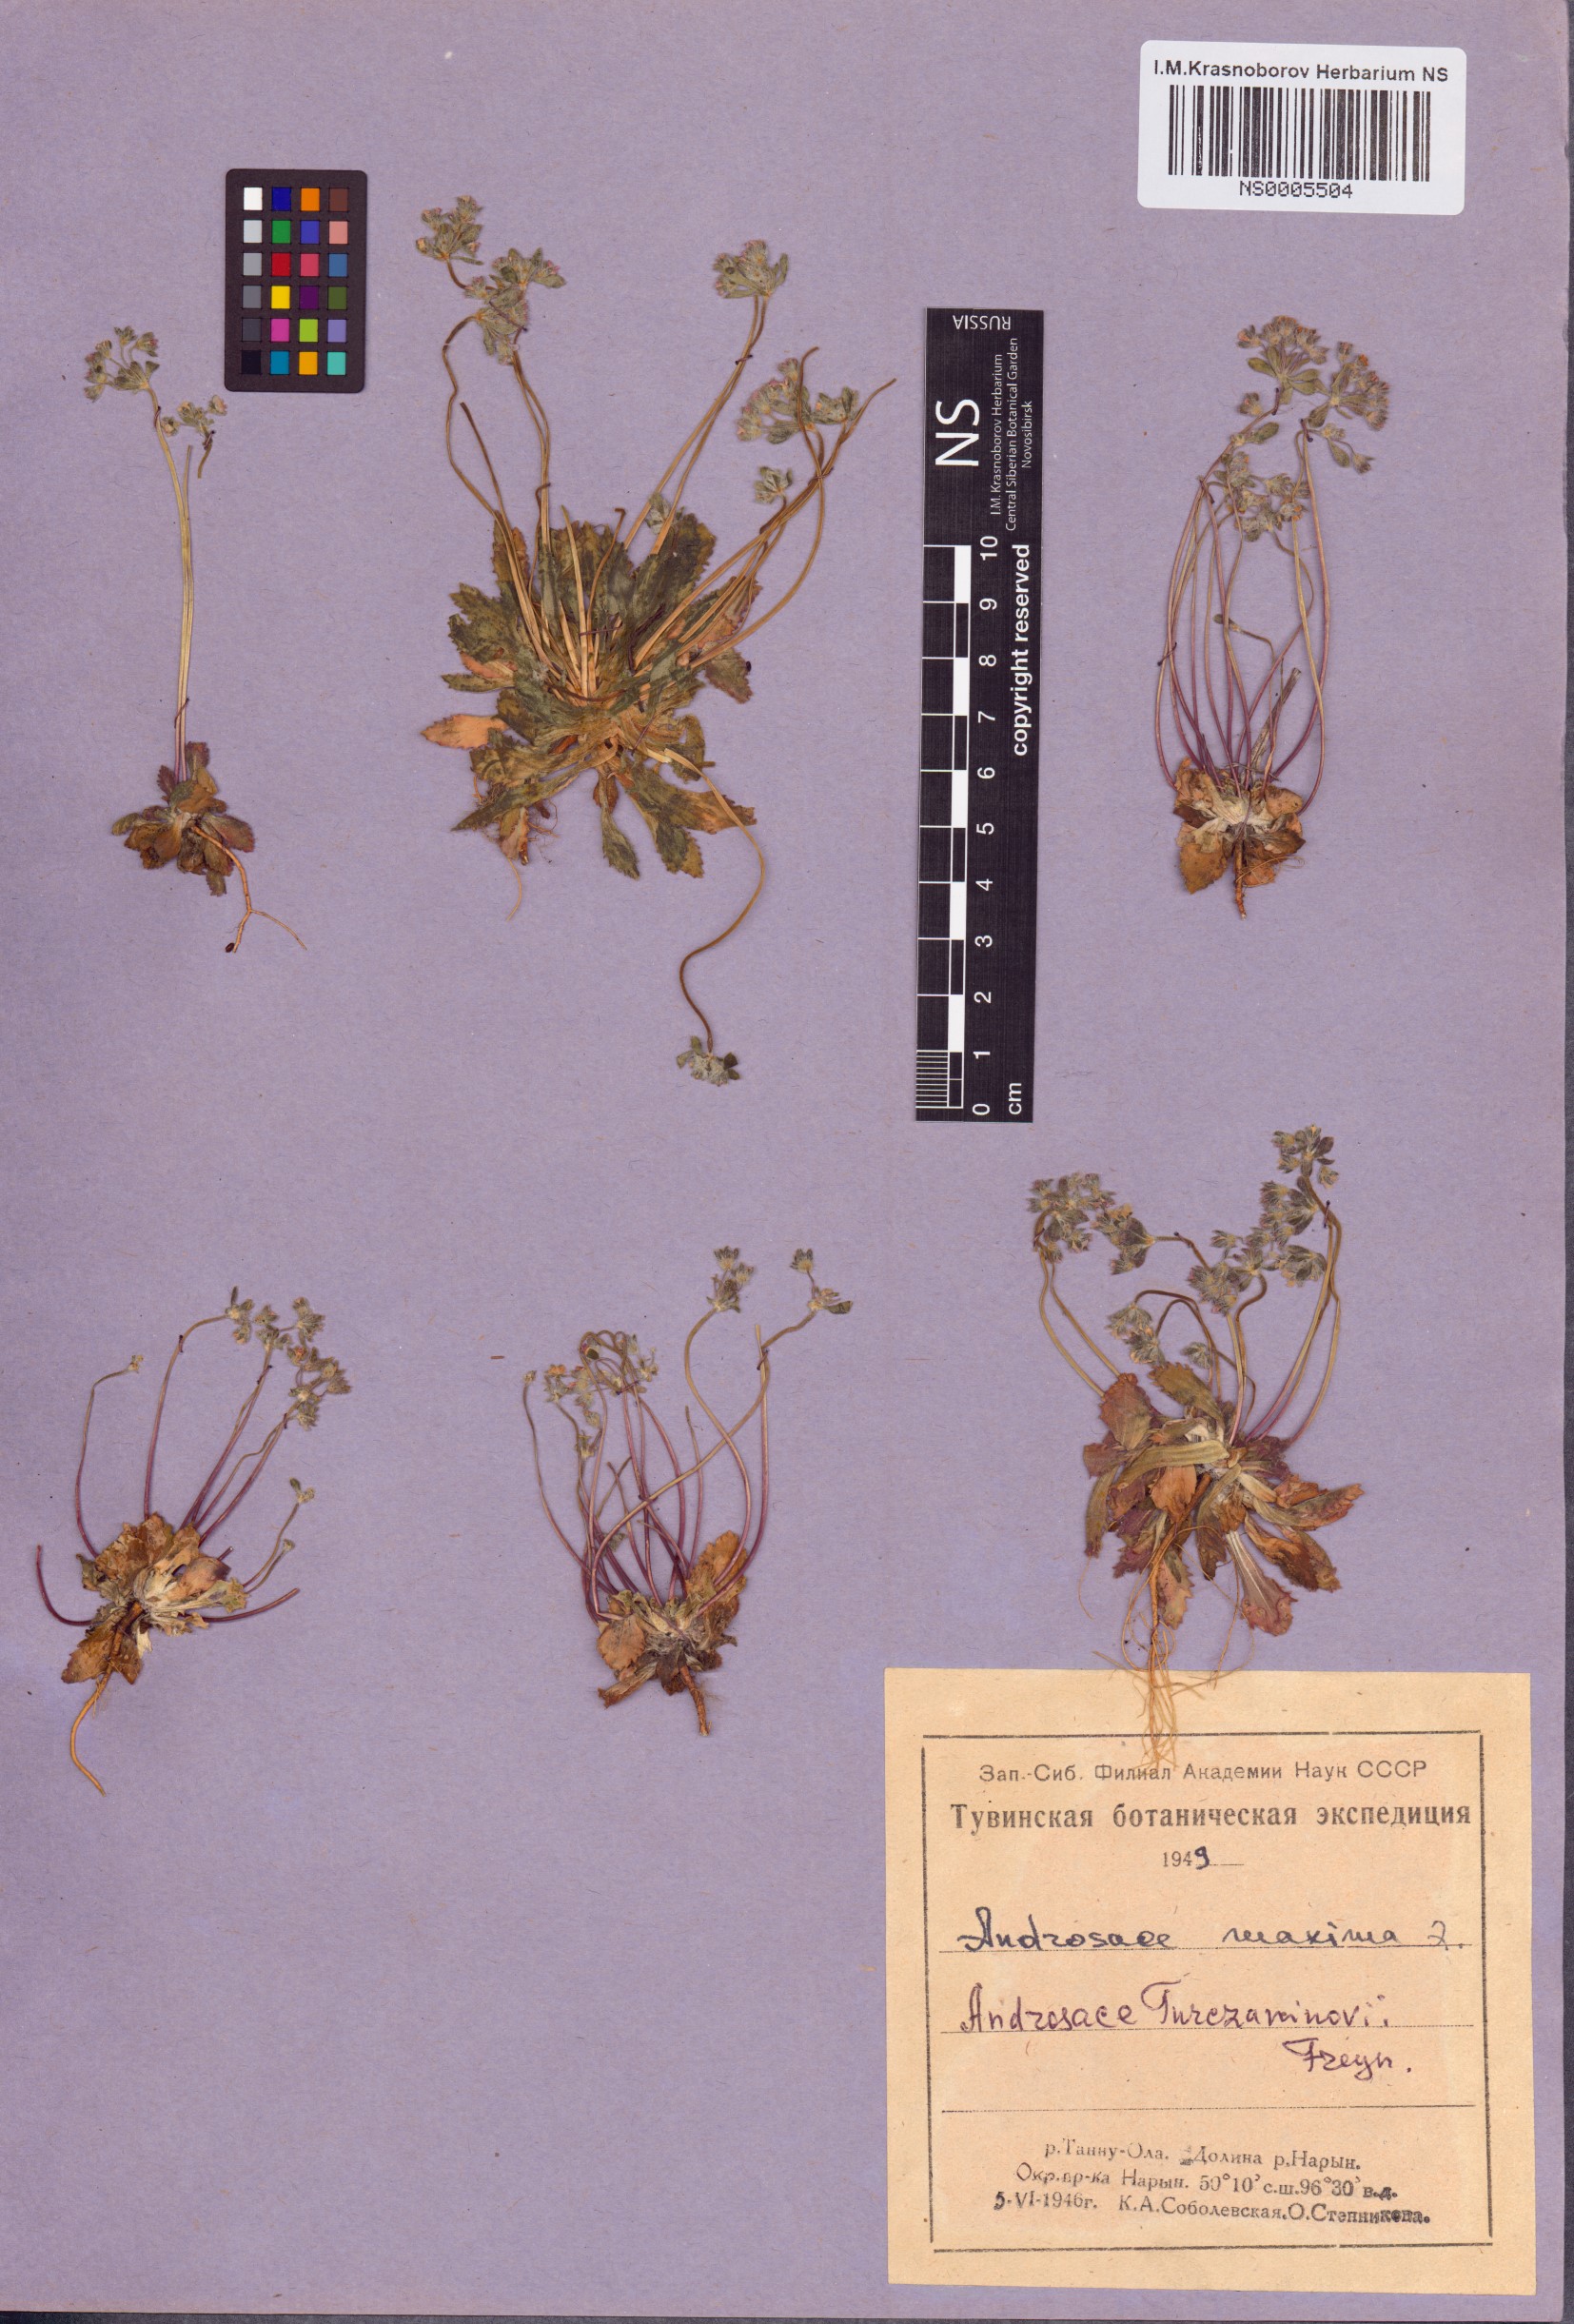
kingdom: Plantae
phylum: Tracheophyta
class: Magnoliopsida
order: Ericales
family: Primulaceae
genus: Androsace
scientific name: Androsace maxima
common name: Annual androsace
